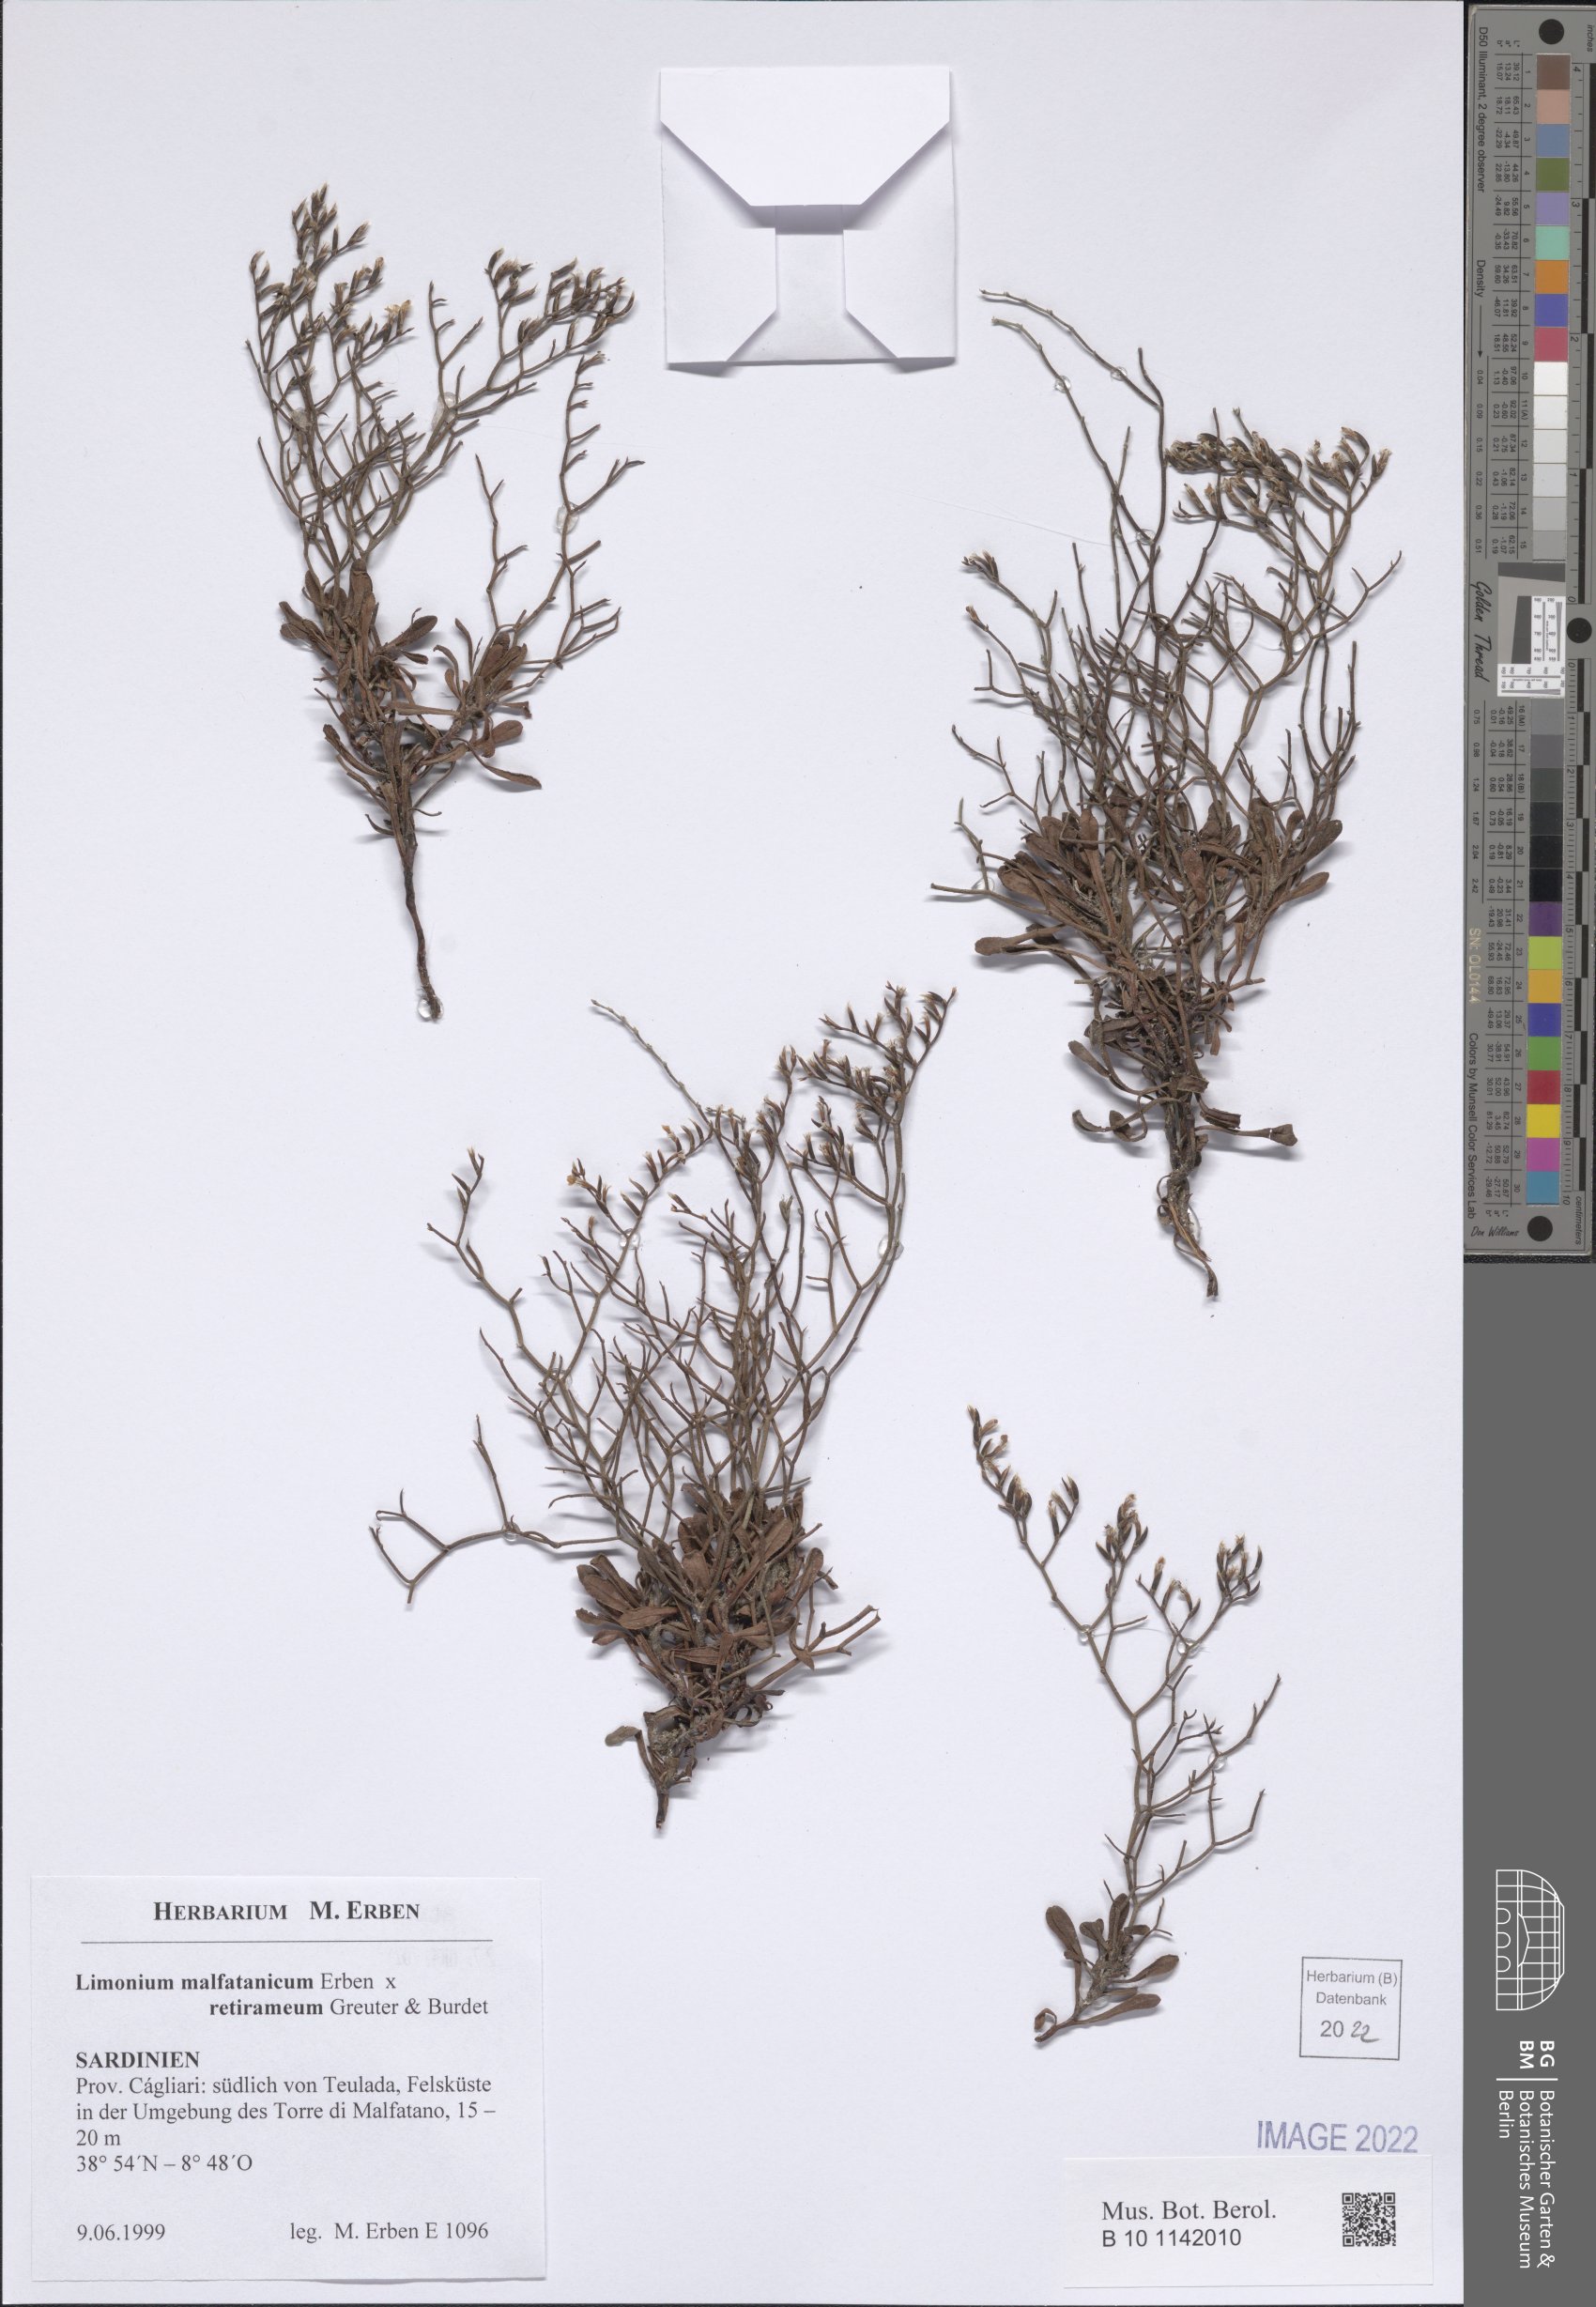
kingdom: Plantae
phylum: Tracheophyta
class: Magnoliopsida
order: Caryophyllales
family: Plumbaginaceae
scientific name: Plumbaginaceae
